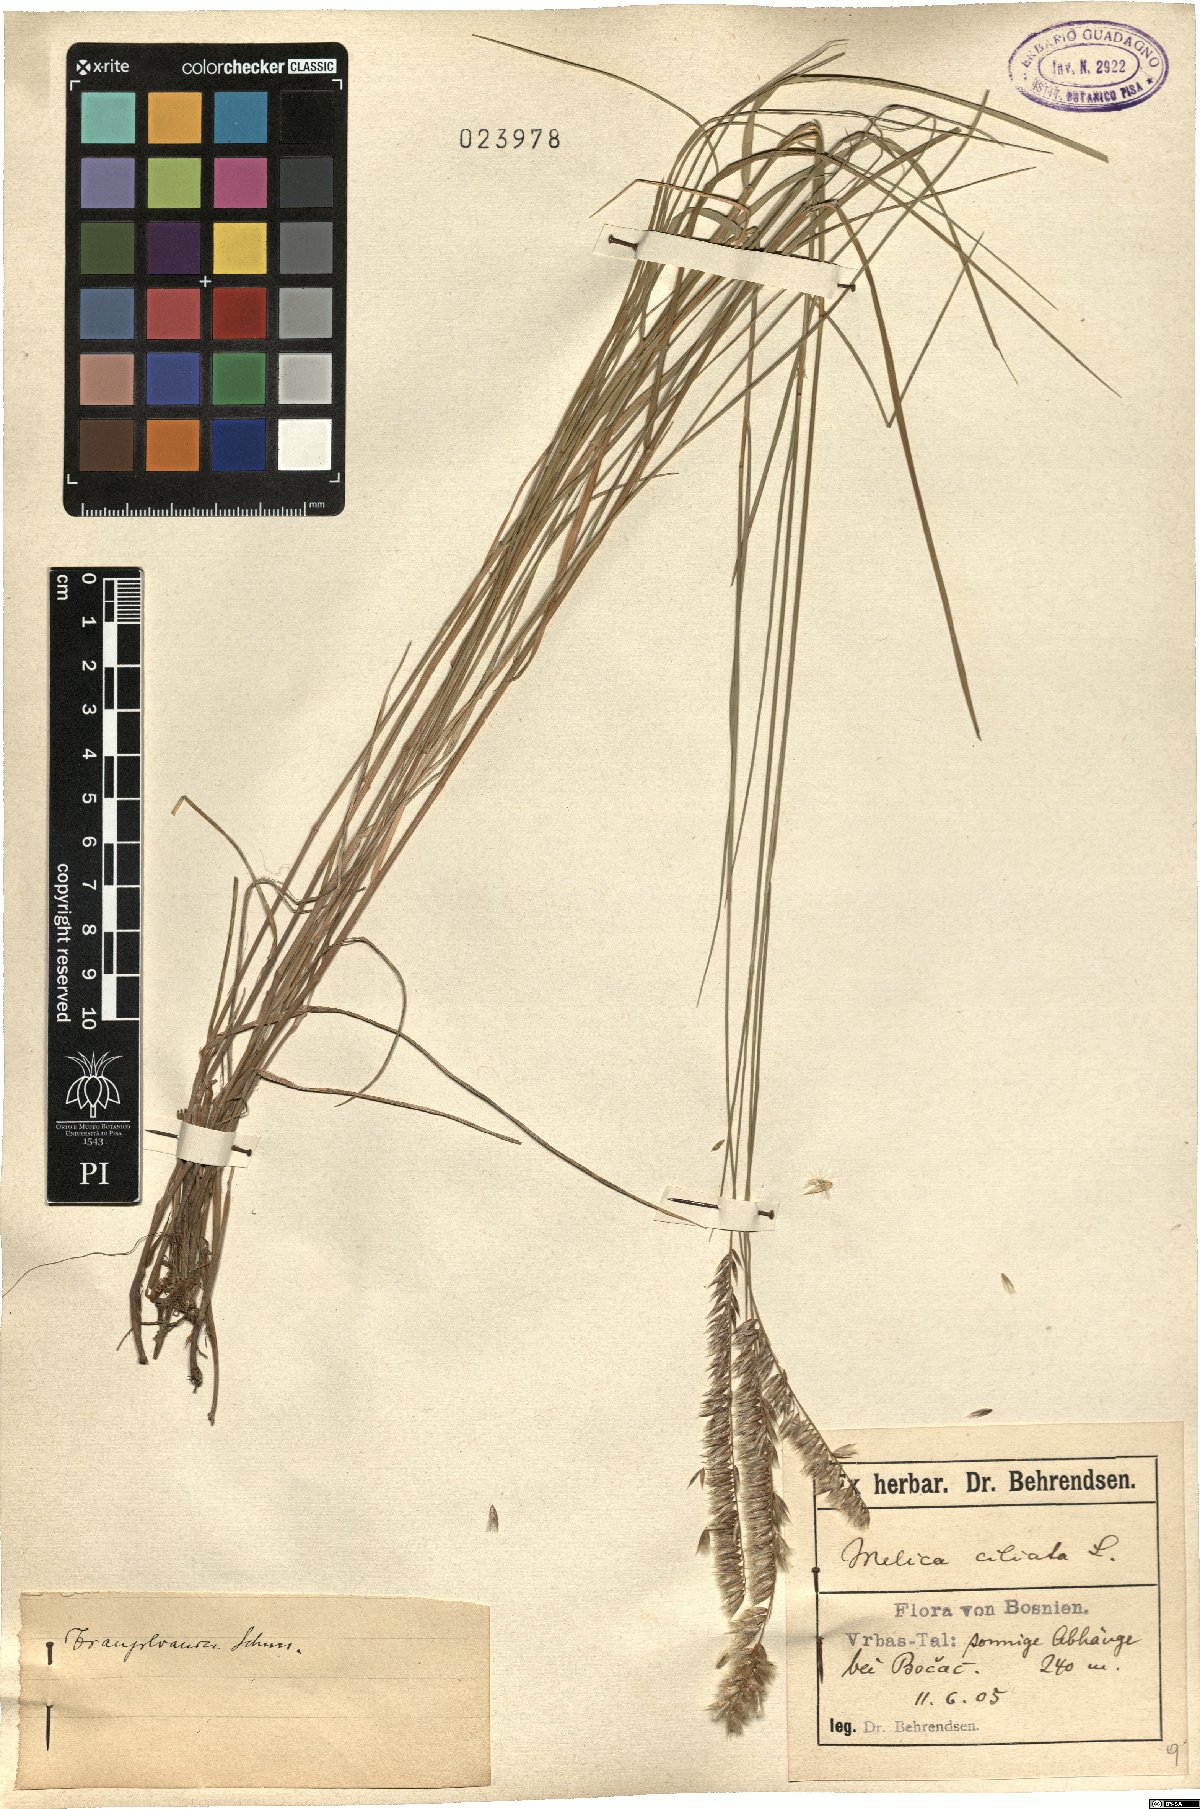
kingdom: Plantae
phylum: Tracheophyta
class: Liliopsida
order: Poales
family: Poaceae
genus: Melica
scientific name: Melica ciliata
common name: Hairy melicgrass
